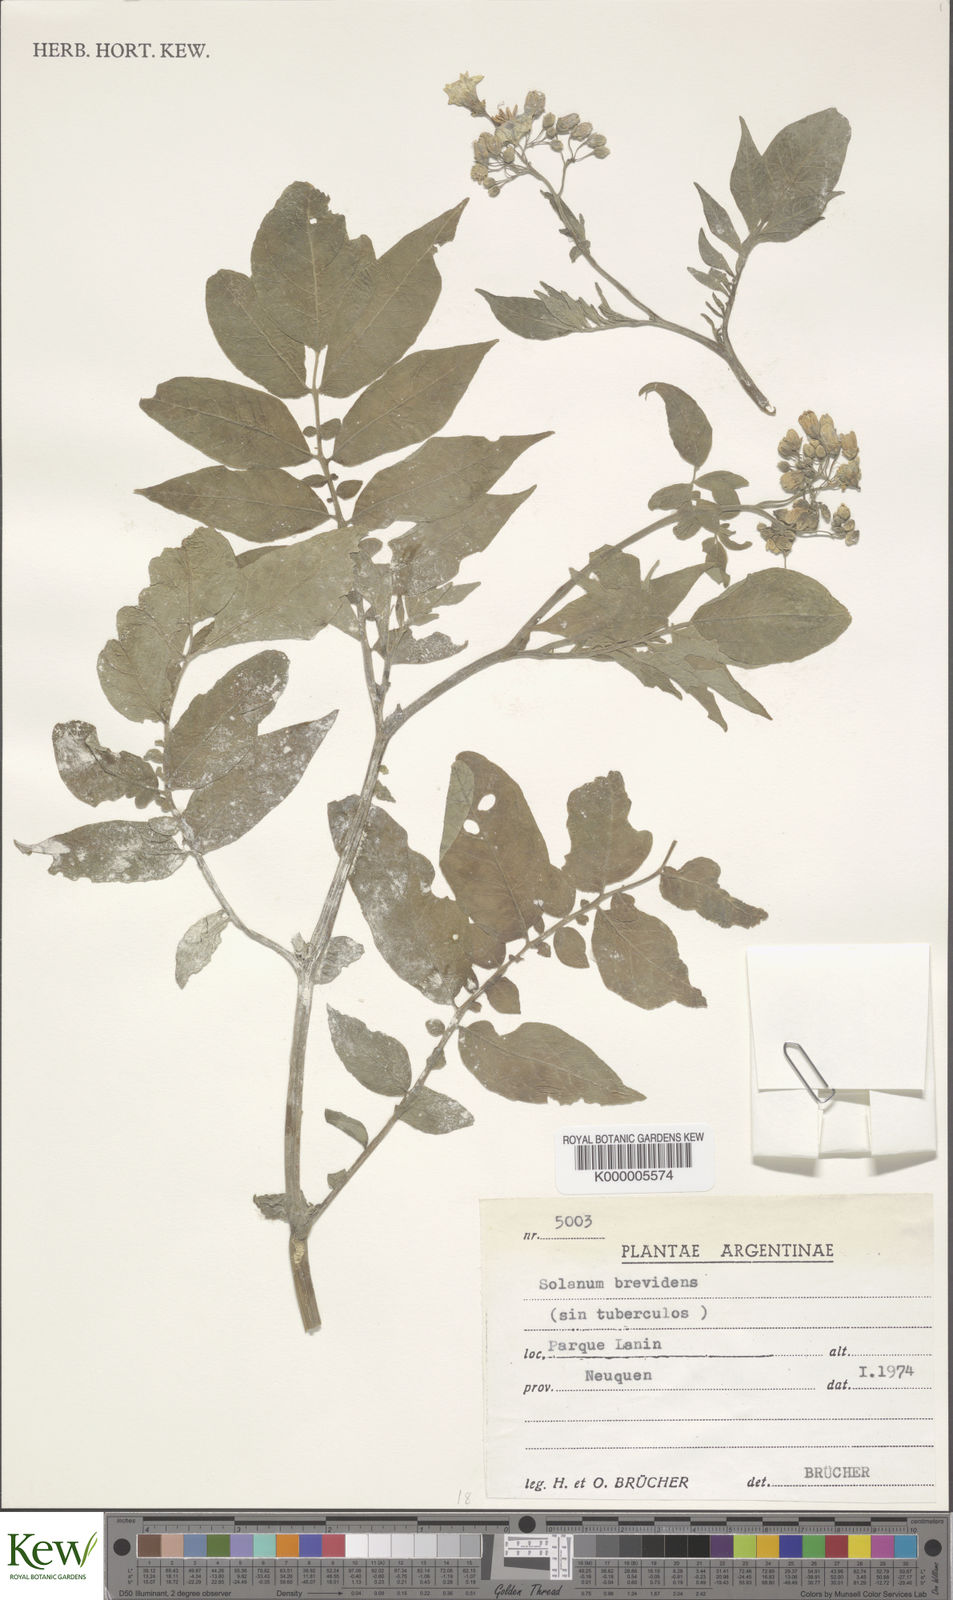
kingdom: Plantae
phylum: Tracheophyta
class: Magnoliopsida
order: Solanales
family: Solanaceae
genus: Solanum
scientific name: Solanum palustre
